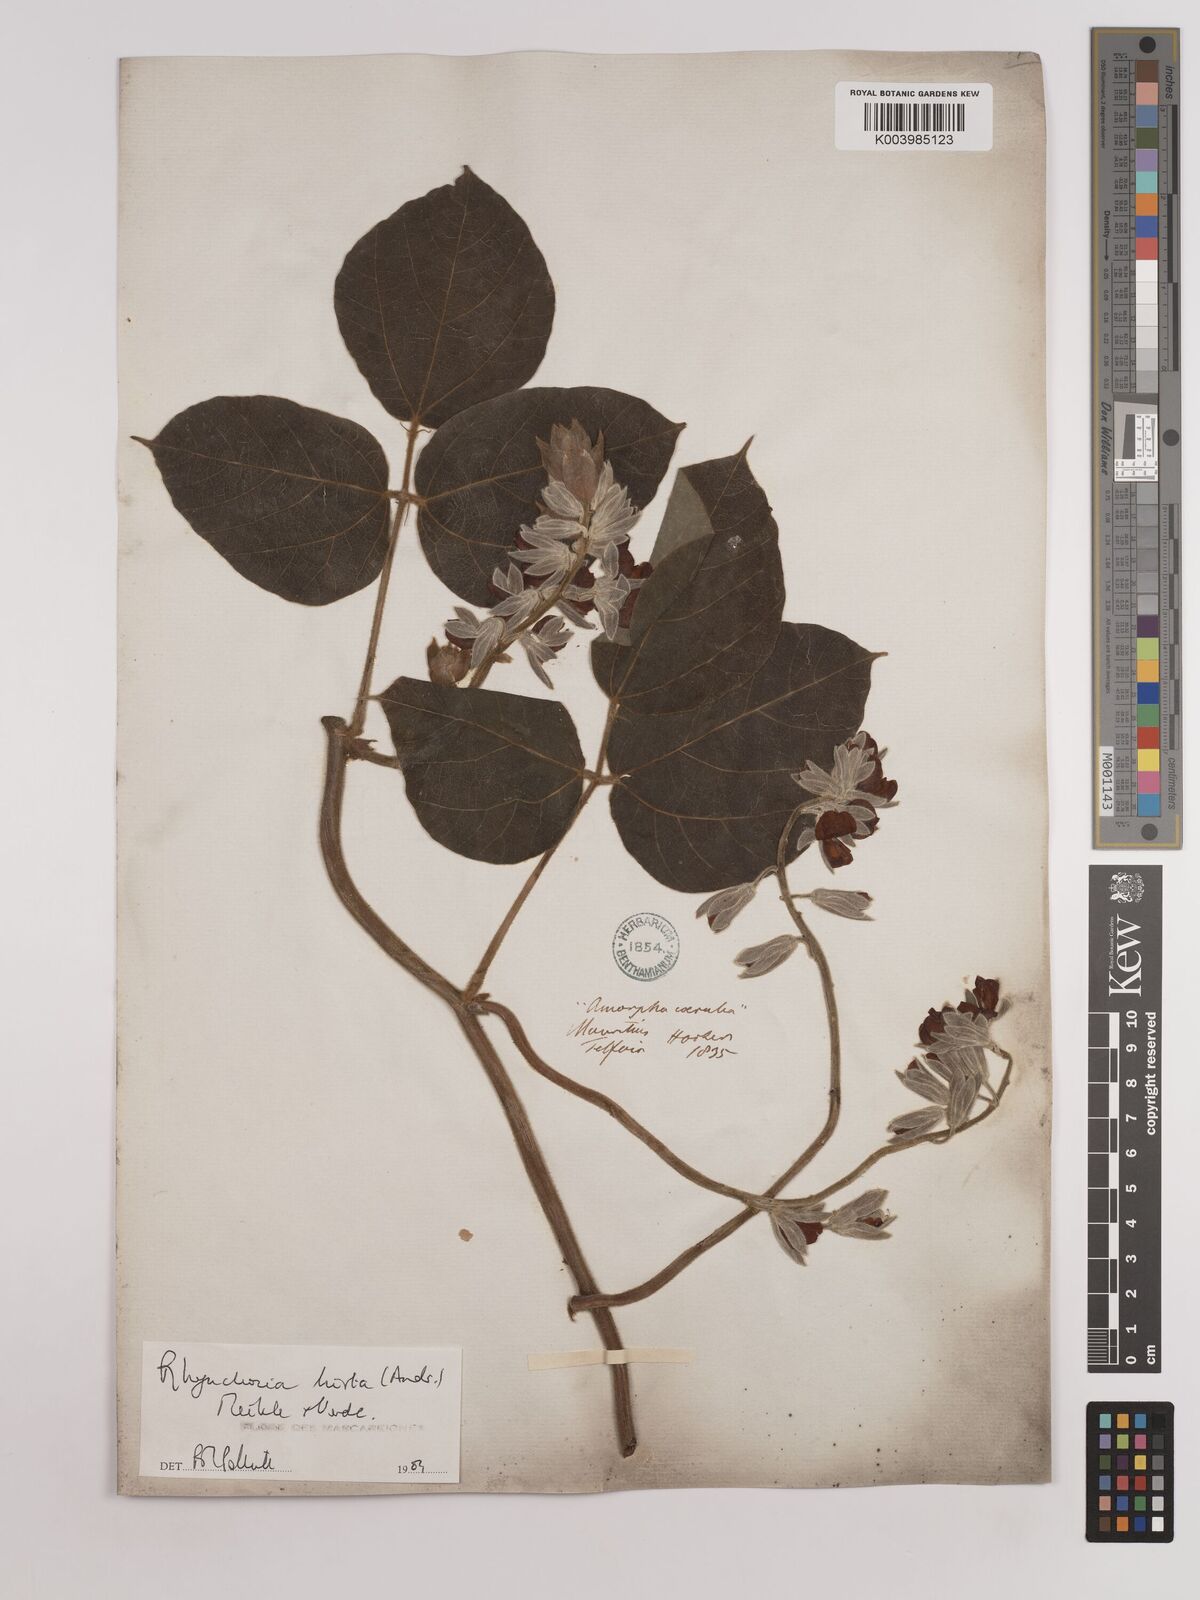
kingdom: Plantae
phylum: Tracheophyta
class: Magnoliopsida
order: Fabales
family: Fabaceae
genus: Rhynchosia
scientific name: Rhynchosia hirta
